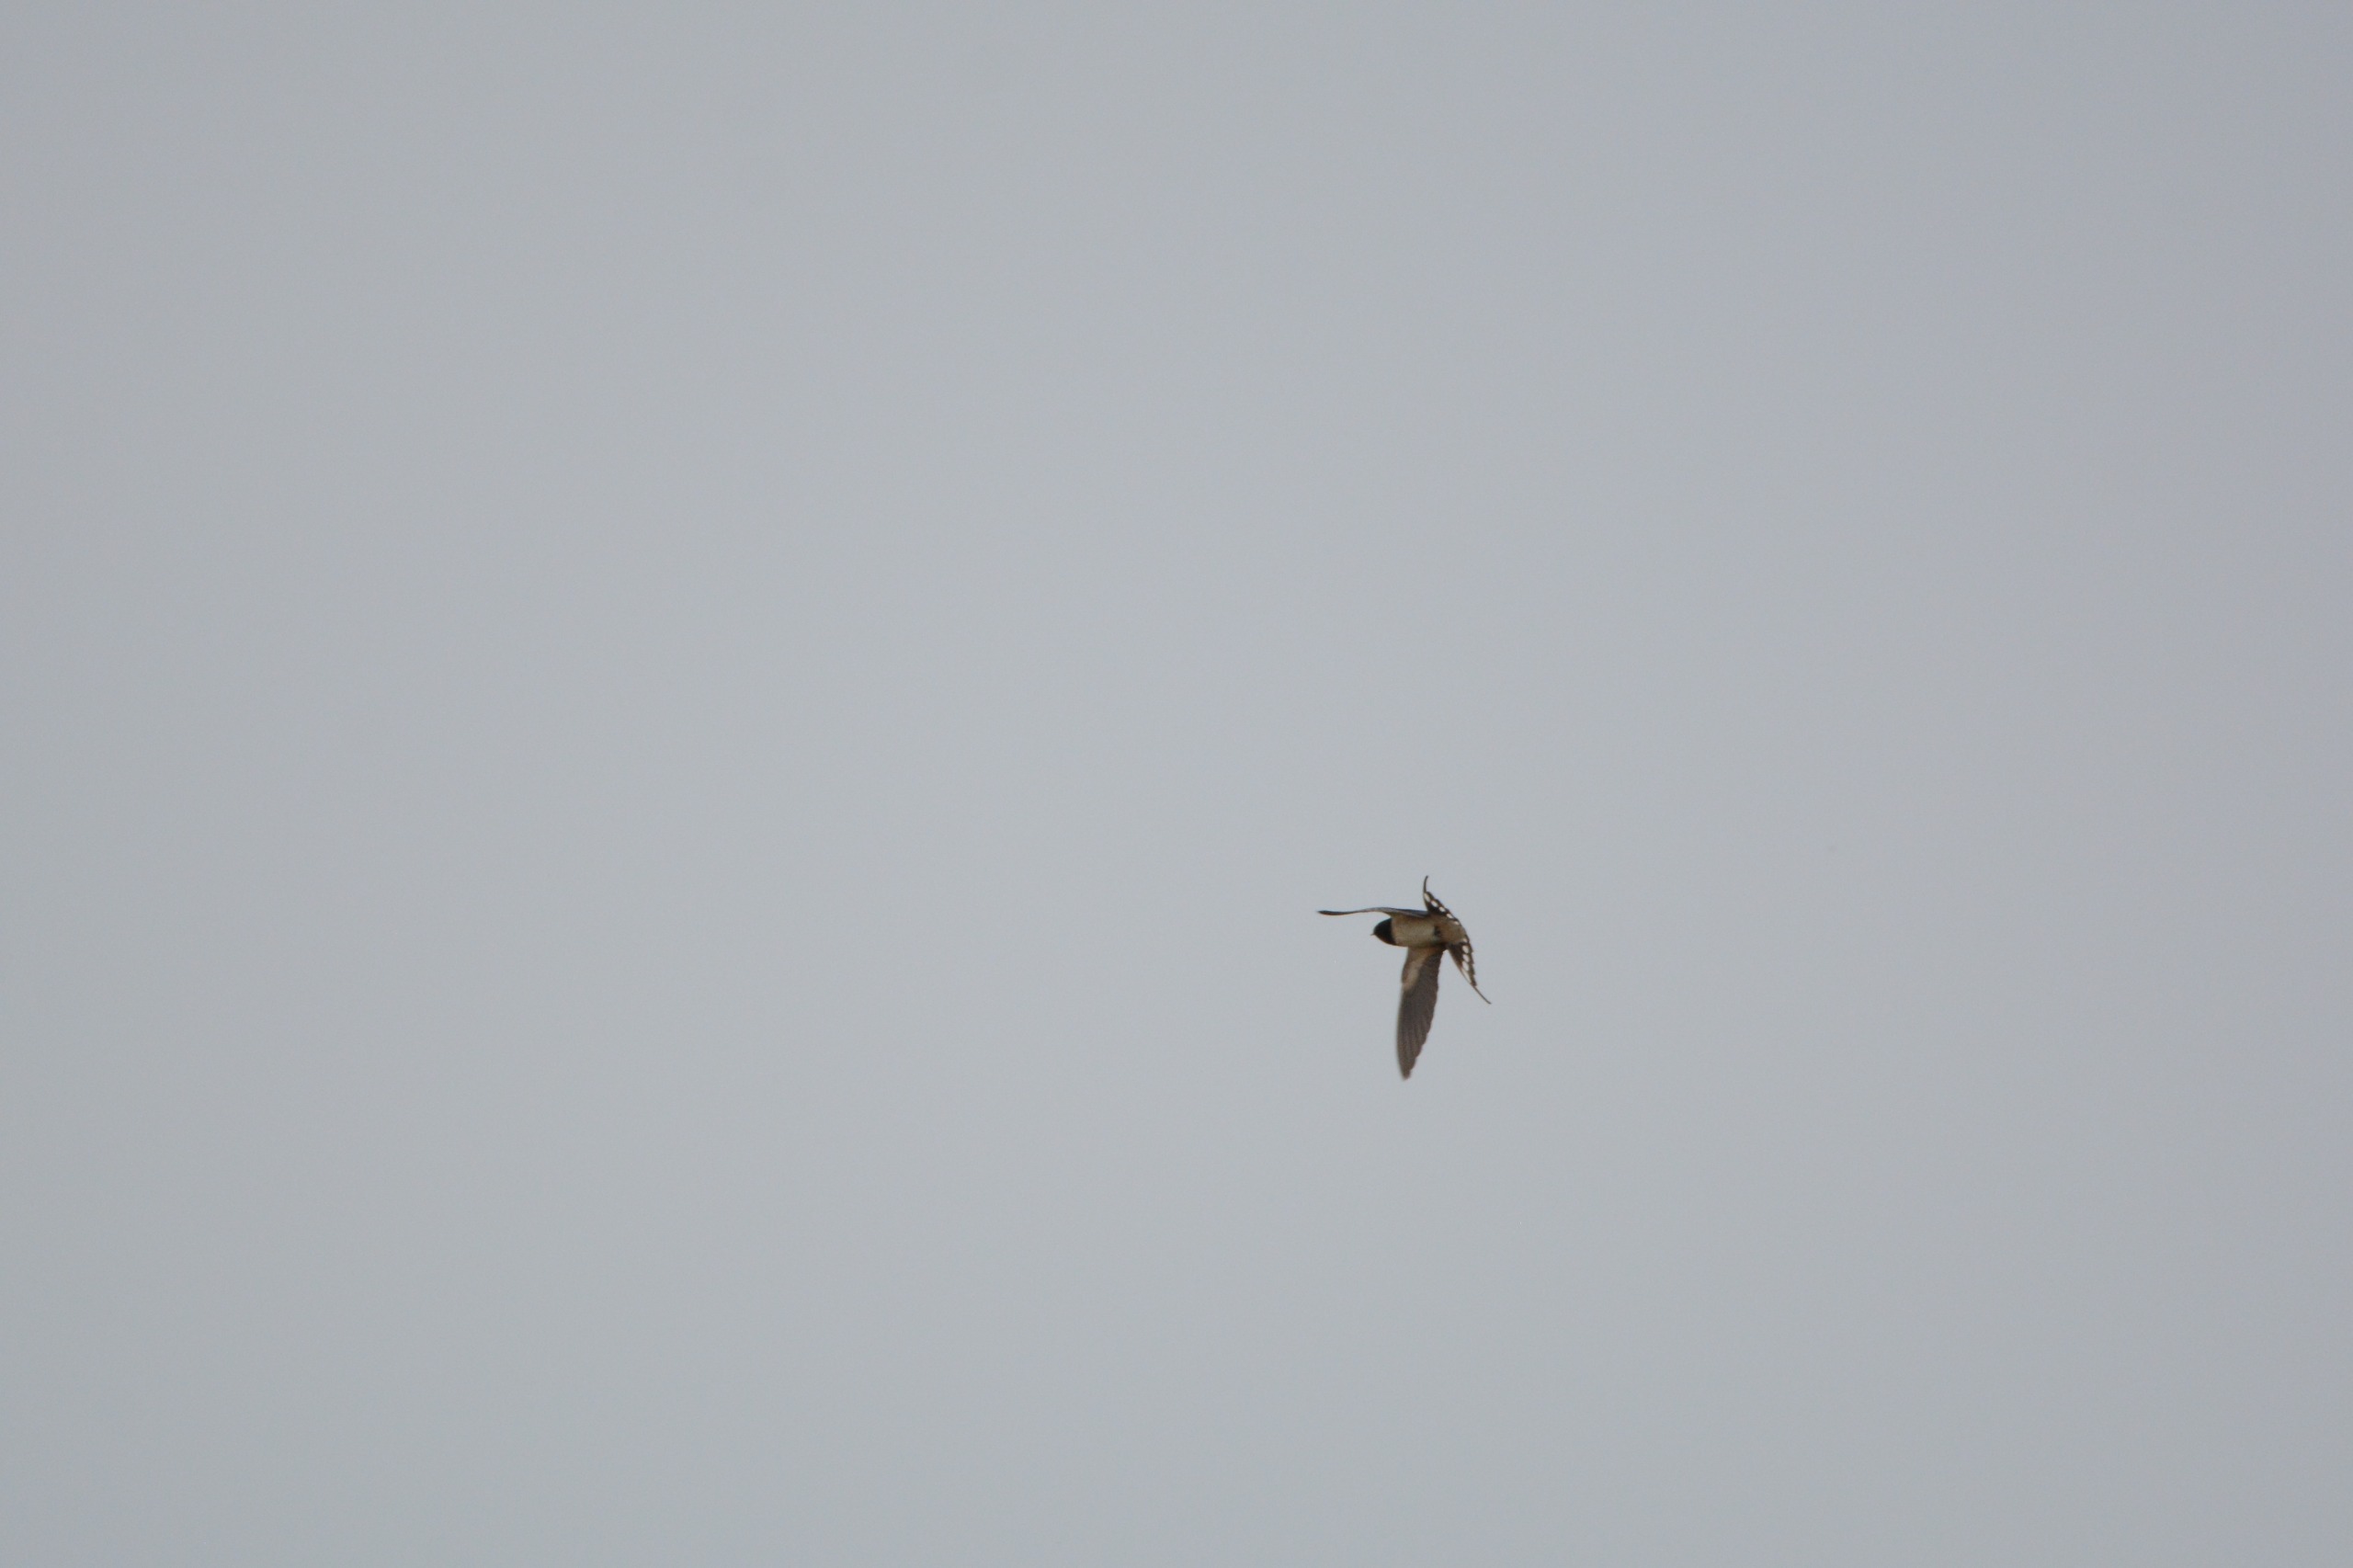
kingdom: Animalia
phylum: Chordata
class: Aves
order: Passeriformes
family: Hirundinidae
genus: Hirundo
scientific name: Hirundo rustica
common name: Landsvale
